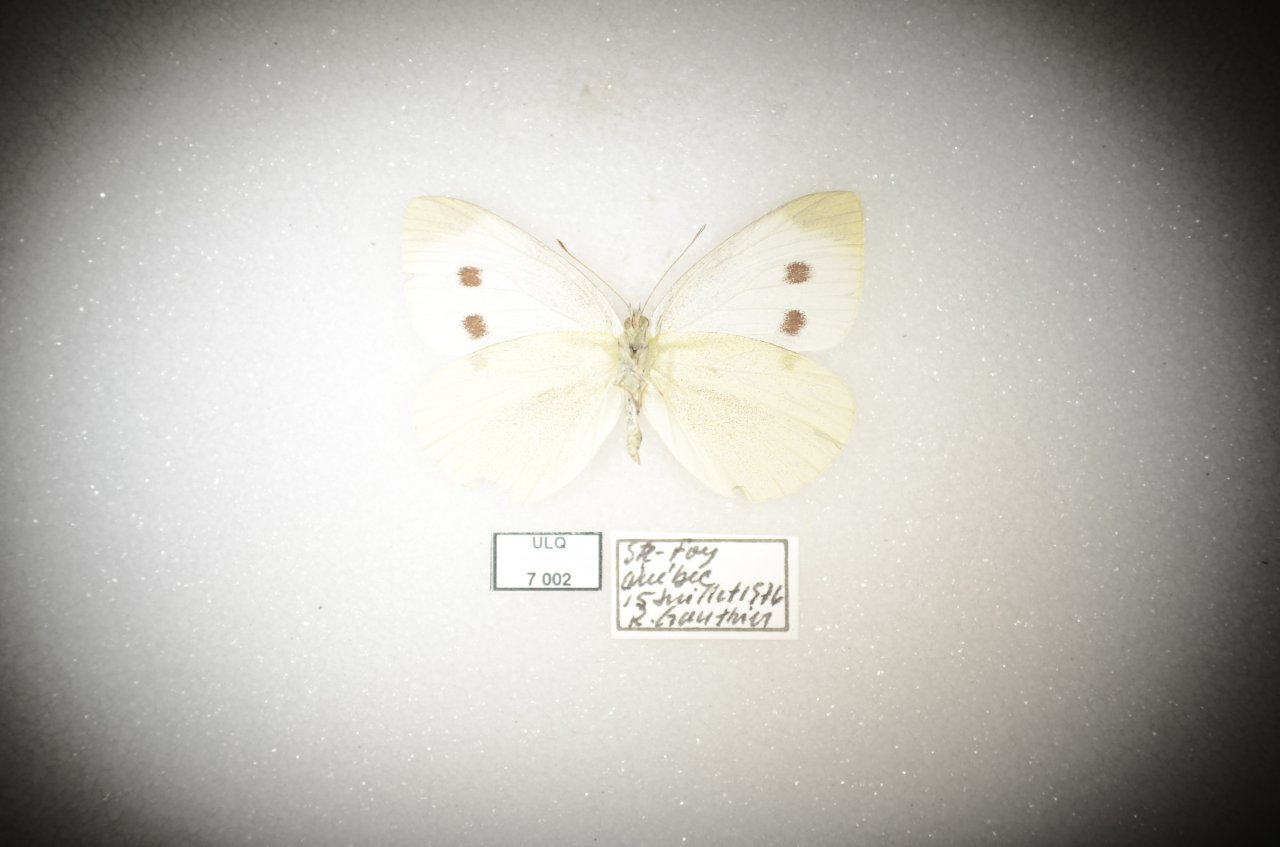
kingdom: Animalia
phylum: Arthropoda
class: Insecta
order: Lepidoptera
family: Pieridae
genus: Pieris
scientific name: Pieris rapae
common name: Cabbage White
